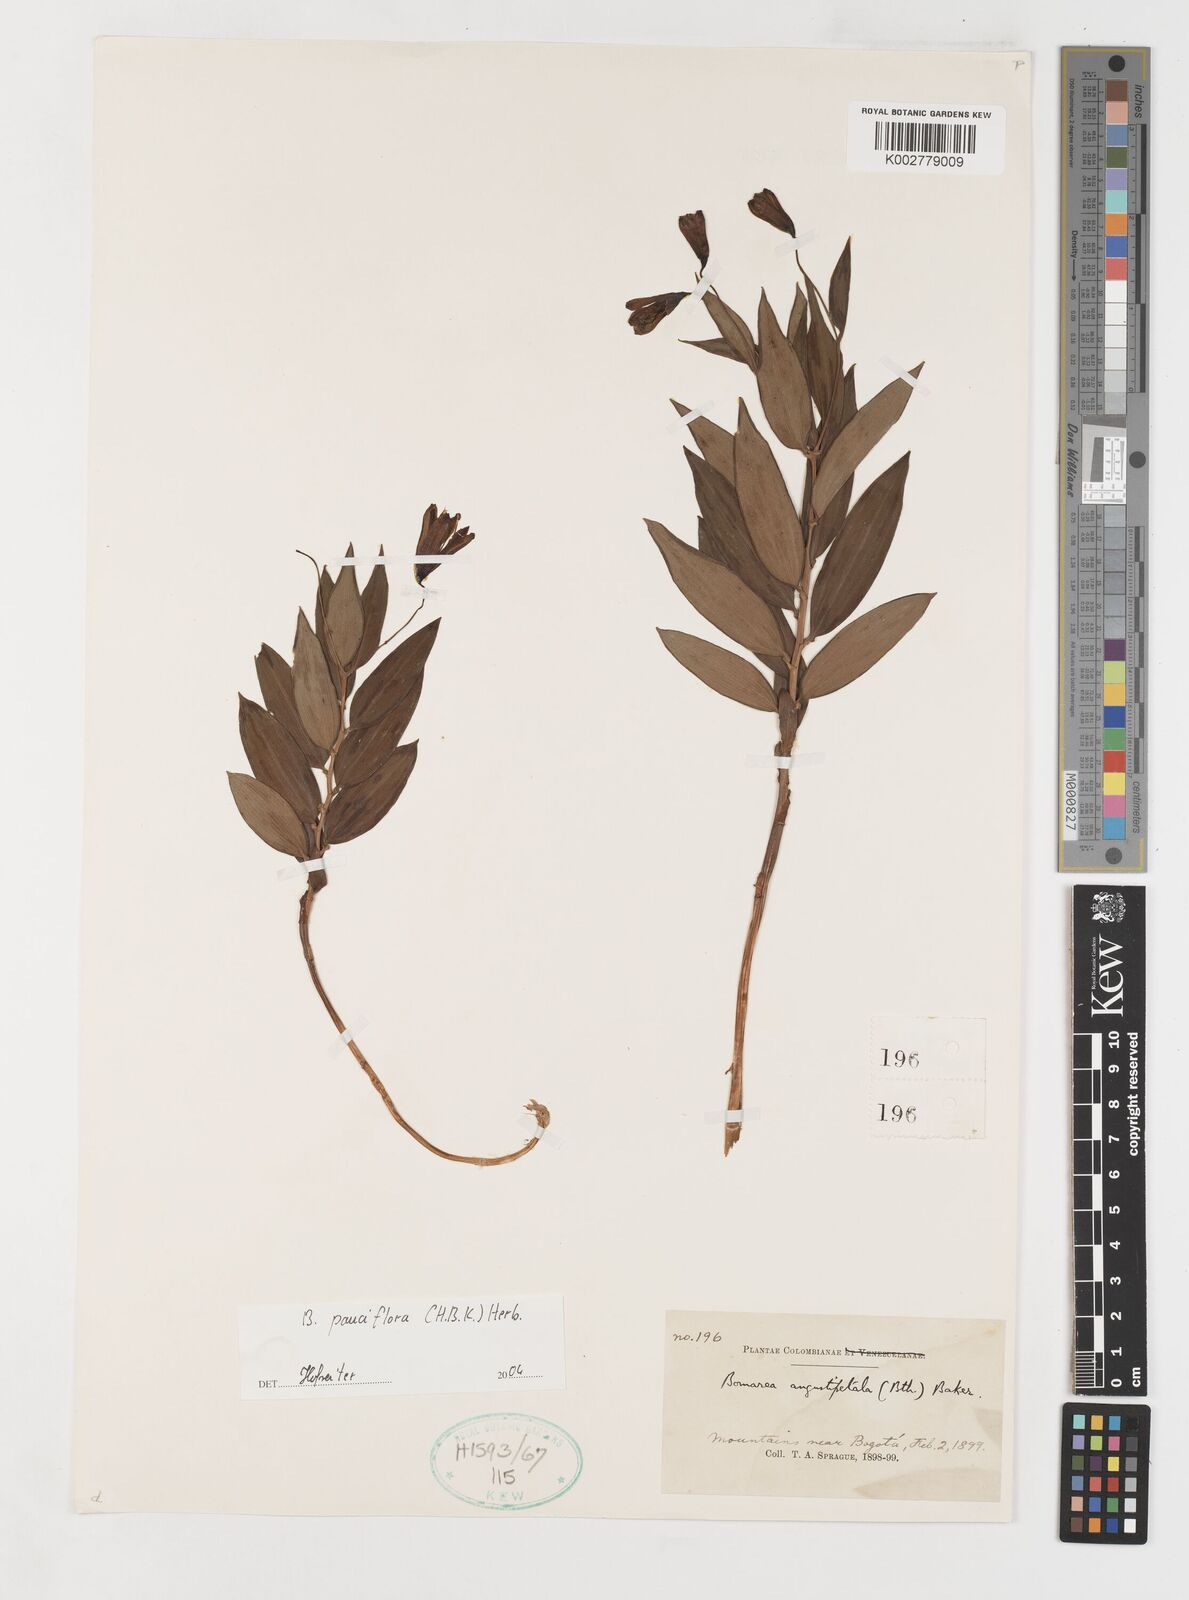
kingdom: Plantae
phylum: Tracheophyta
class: Liliopsida
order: Liliales
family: Alstroemeriaceae
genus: Bomarea
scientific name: Bomarea pauciflora
